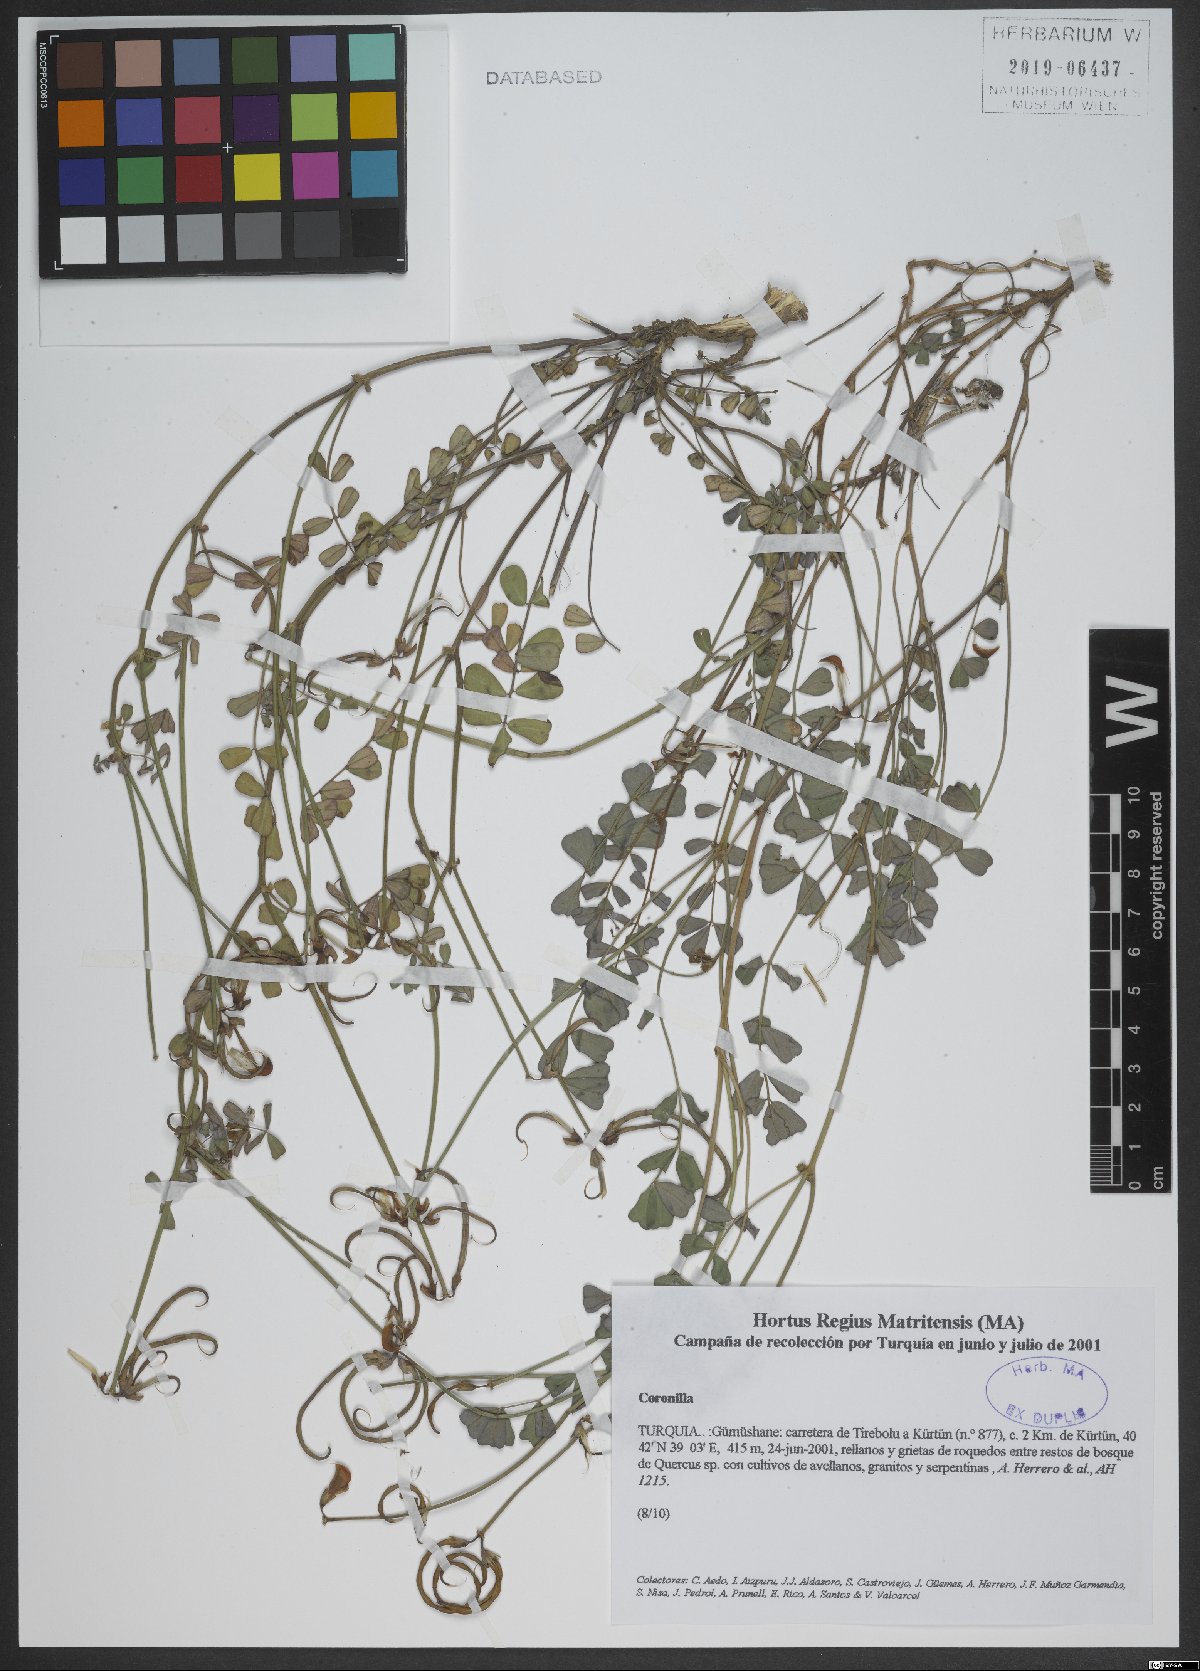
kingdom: Plantae
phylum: Tracheophyta
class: Magnoliopsida
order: Fabales
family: Fabaceae
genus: Coronilla
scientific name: Coronilla
